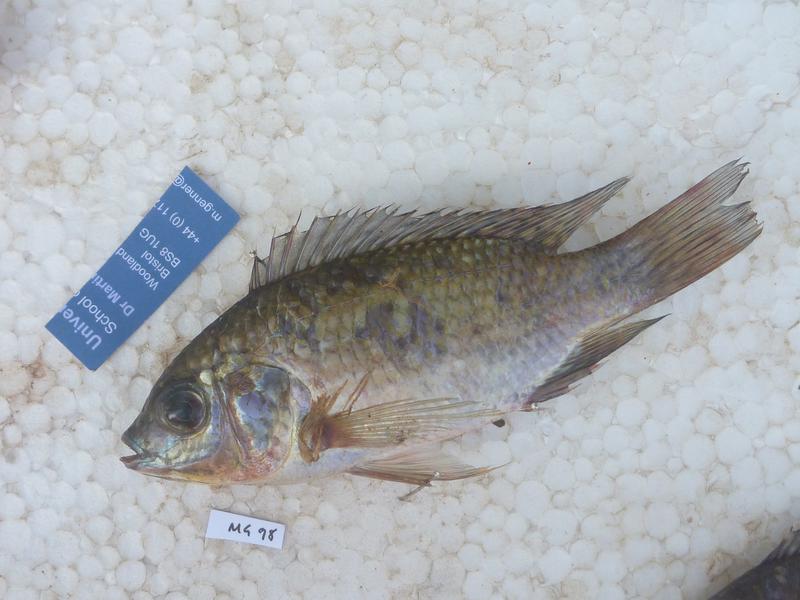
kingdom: Animalia
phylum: Chordata
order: Perciformes
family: Cichlidae
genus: Oreochromis
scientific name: Oreochromis leucostictus
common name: Blue spotted tilapia
